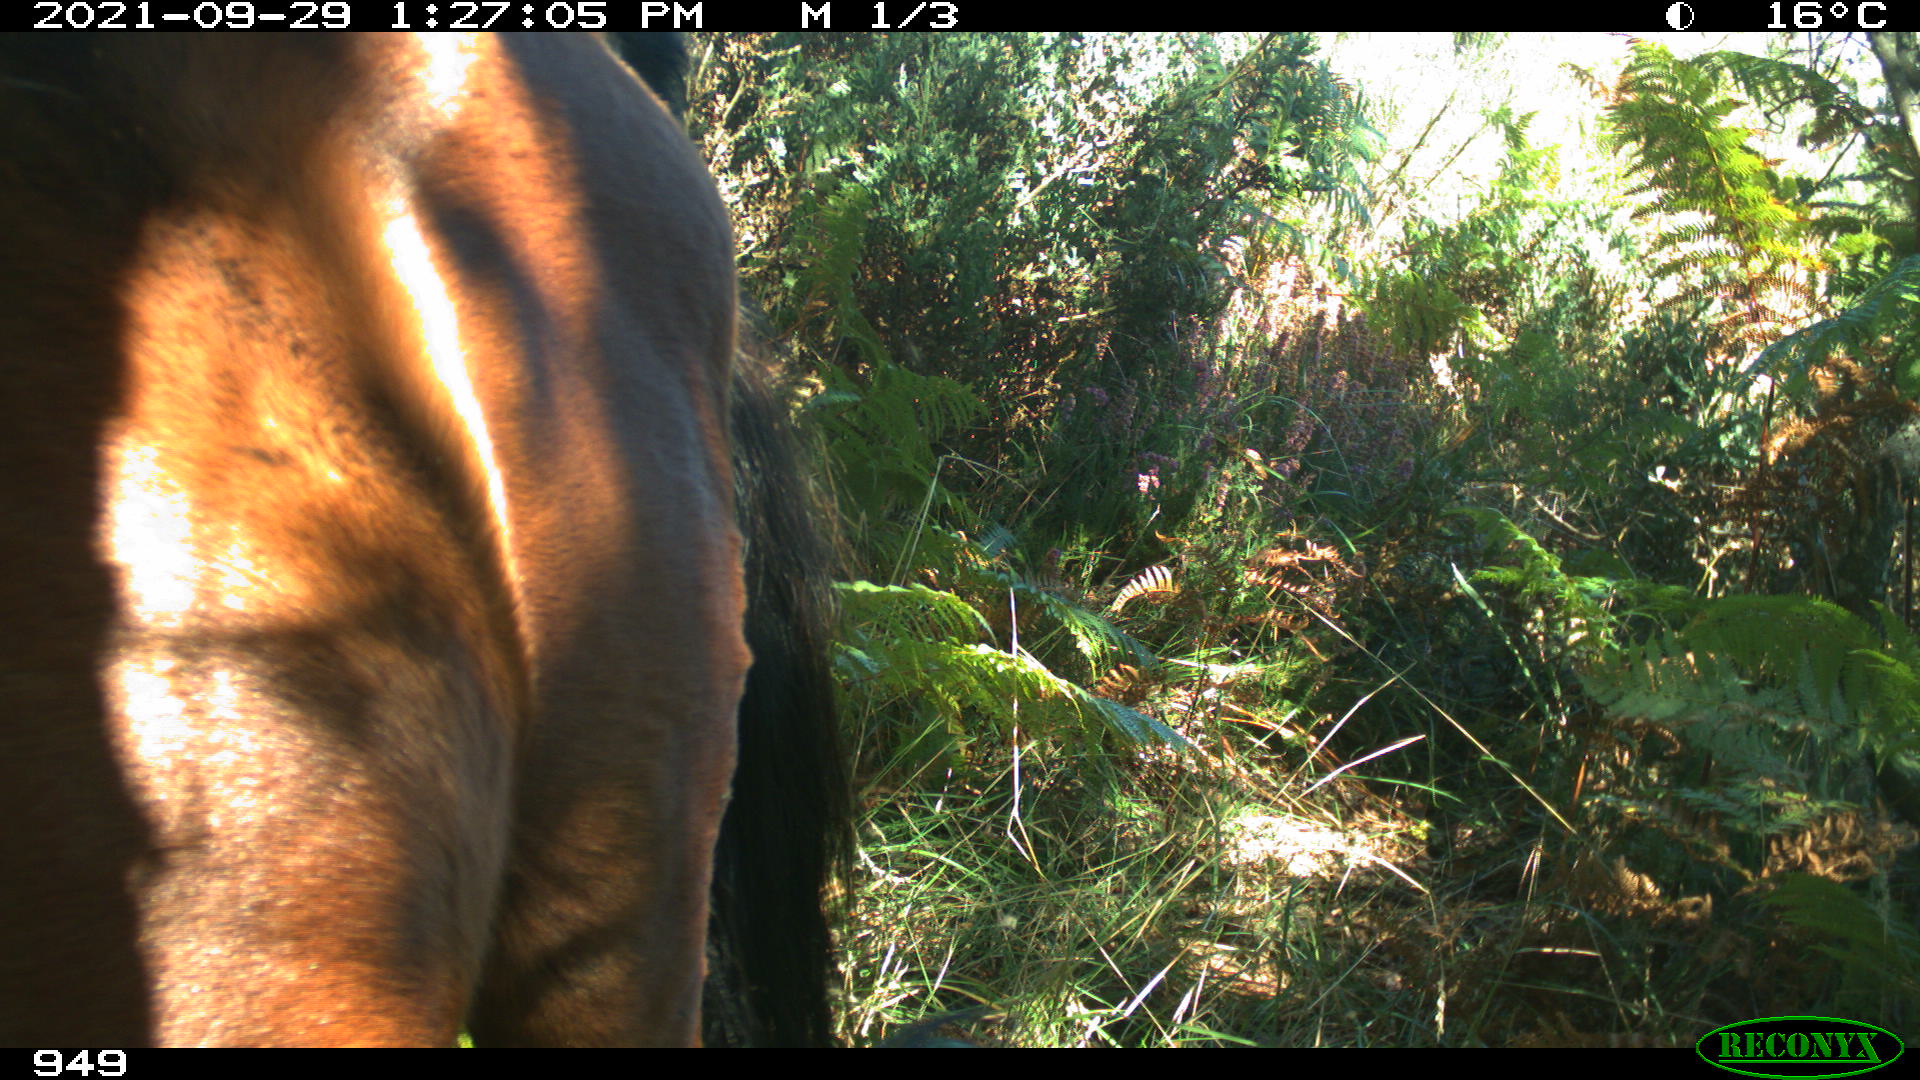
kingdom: Animalia
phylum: Chordata
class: Mammalia
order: Perissodactyla
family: Equidae
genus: Equus
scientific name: Equus caballus
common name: Horse
